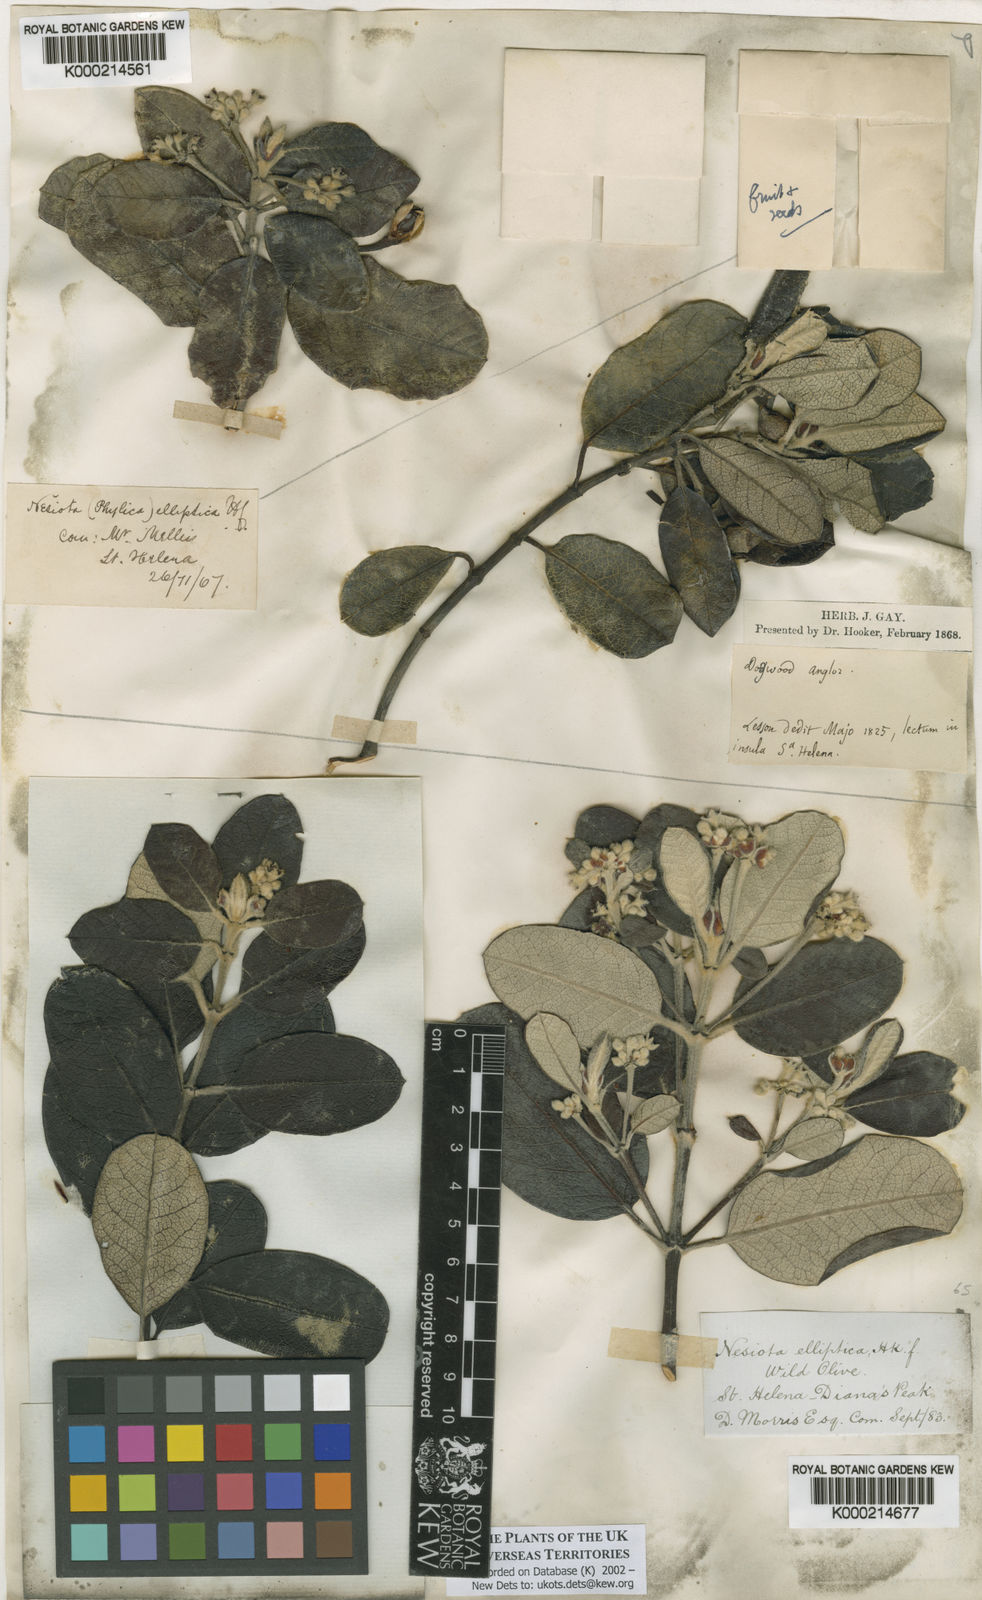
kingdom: Plantae
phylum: Tracheophyta
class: Magnoliopsida
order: Rosales
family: Rhamnaceae
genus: Nesiota
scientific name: Nesiota elliptica
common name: St helena olive
